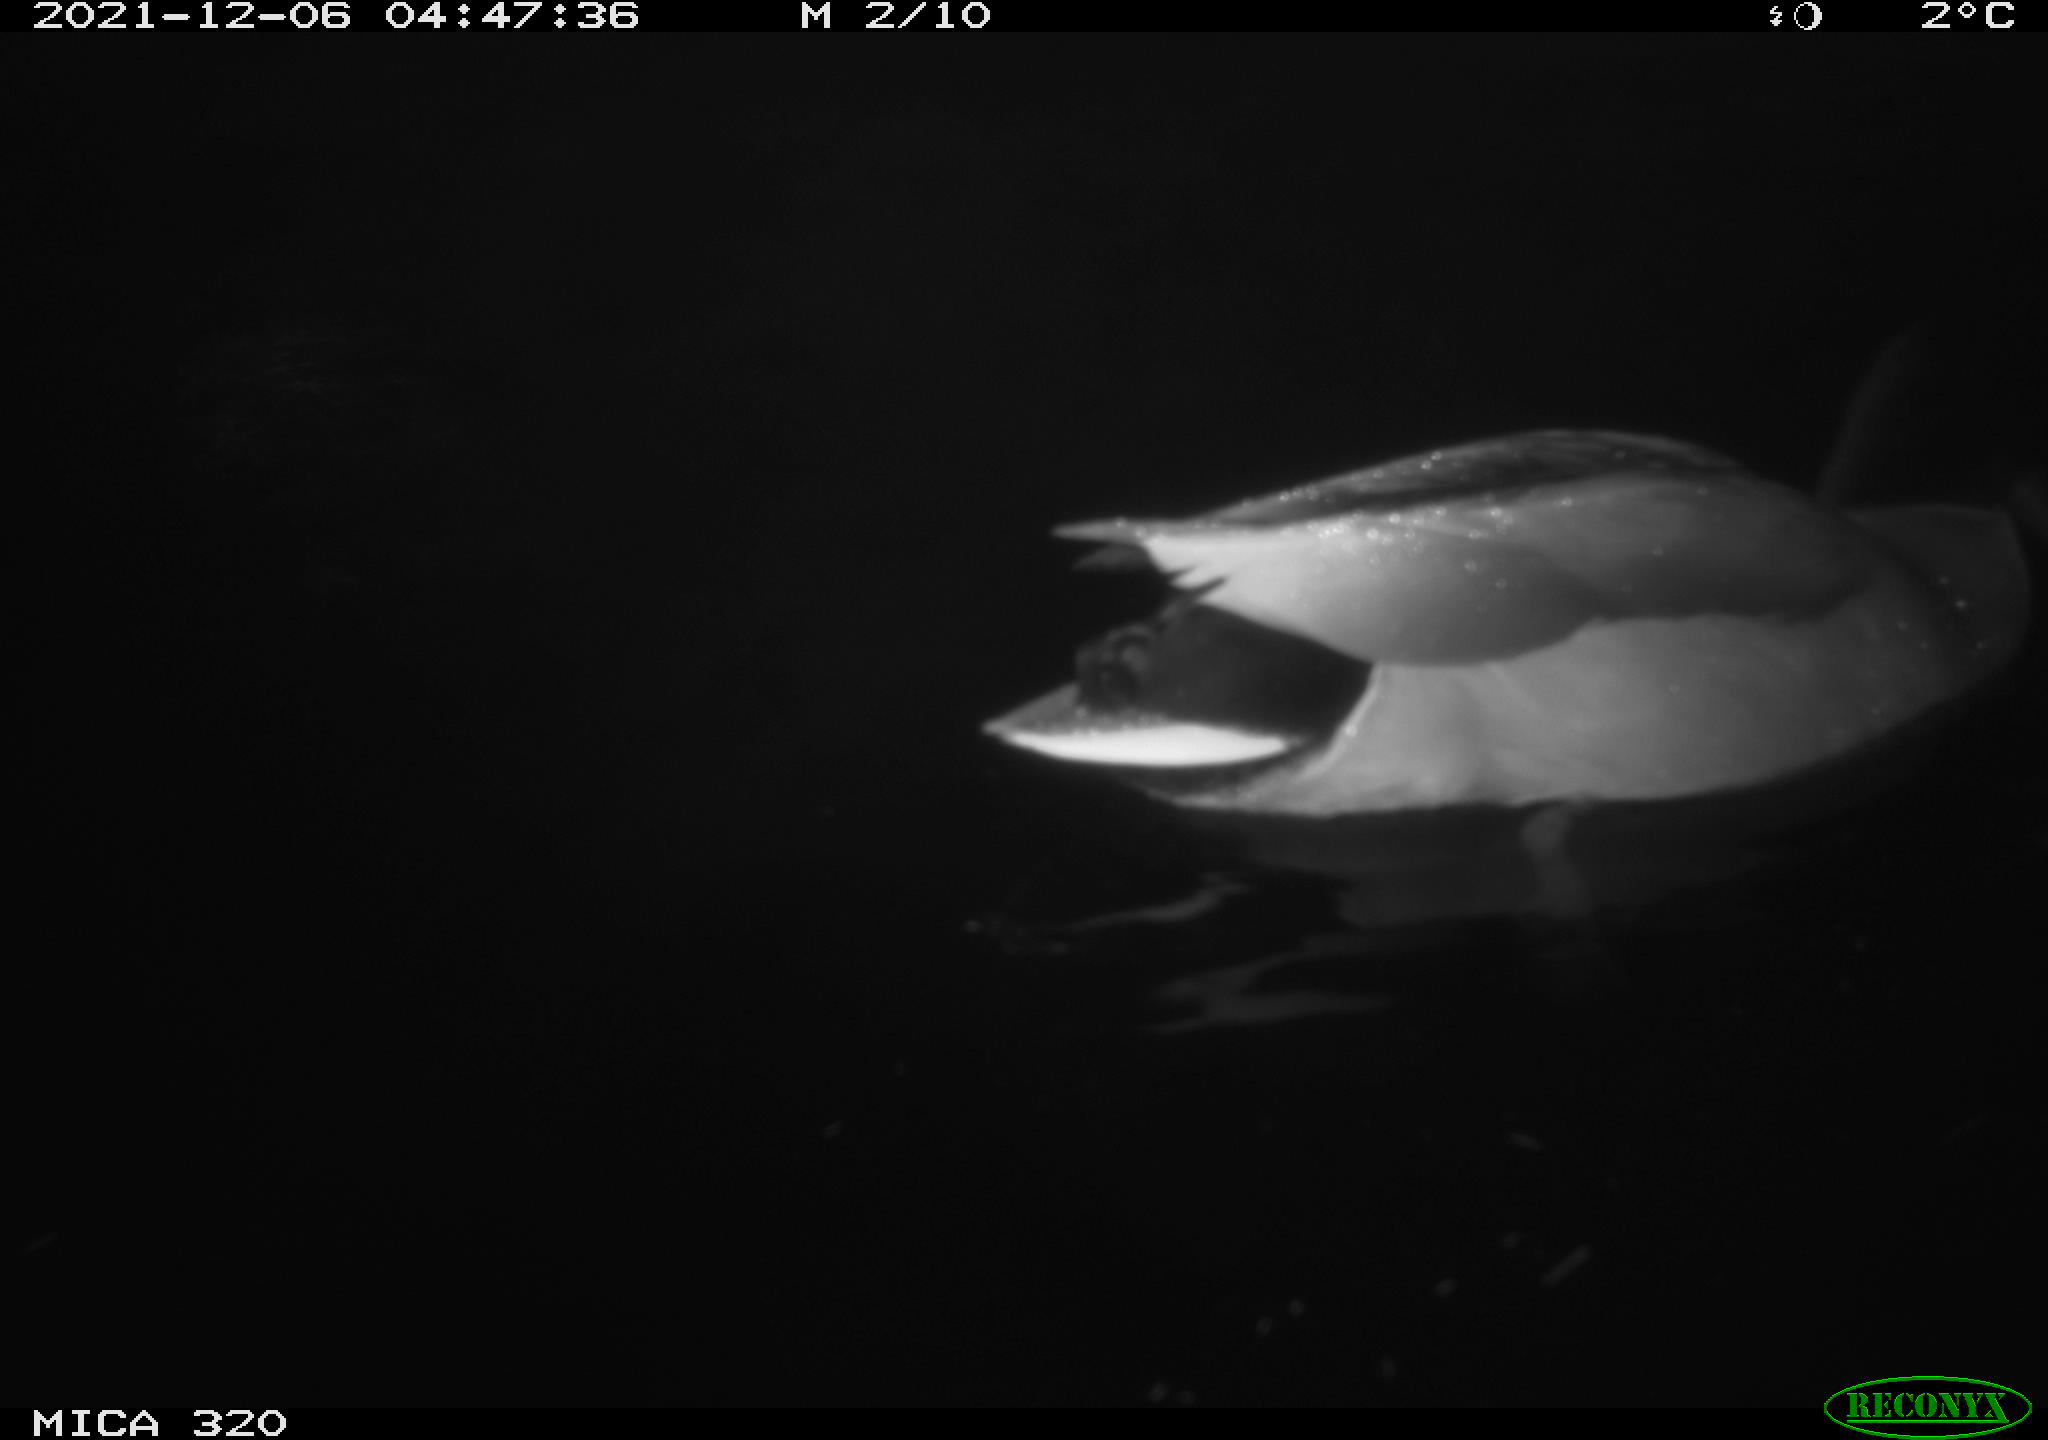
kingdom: Animalia
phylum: Chordata
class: Aves
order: Anseriformes
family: Anatidae
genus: Anas
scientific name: Anas platyrhynchos
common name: Mallard
